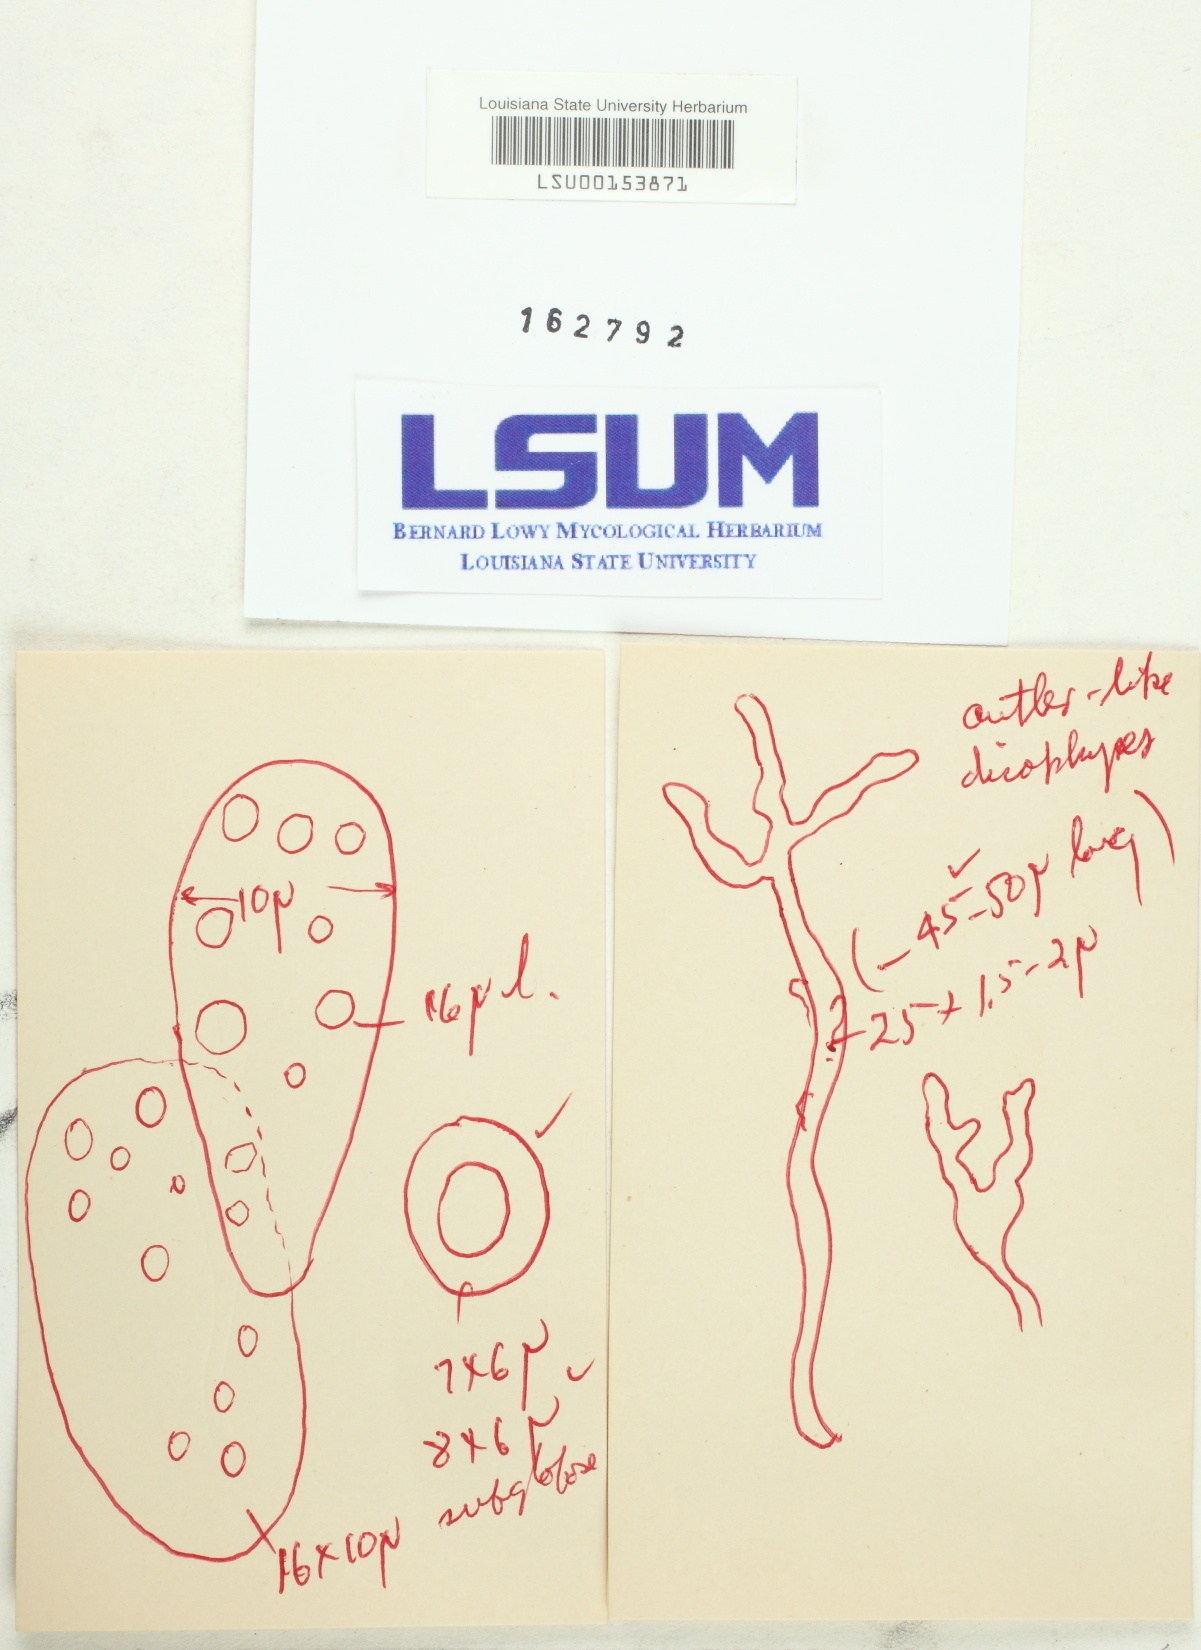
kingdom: Fungi
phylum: Basidiomycota
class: Agaricomycetes
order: Agaricales
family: Marasmiaceae
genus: Solenia
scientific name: Solenia
